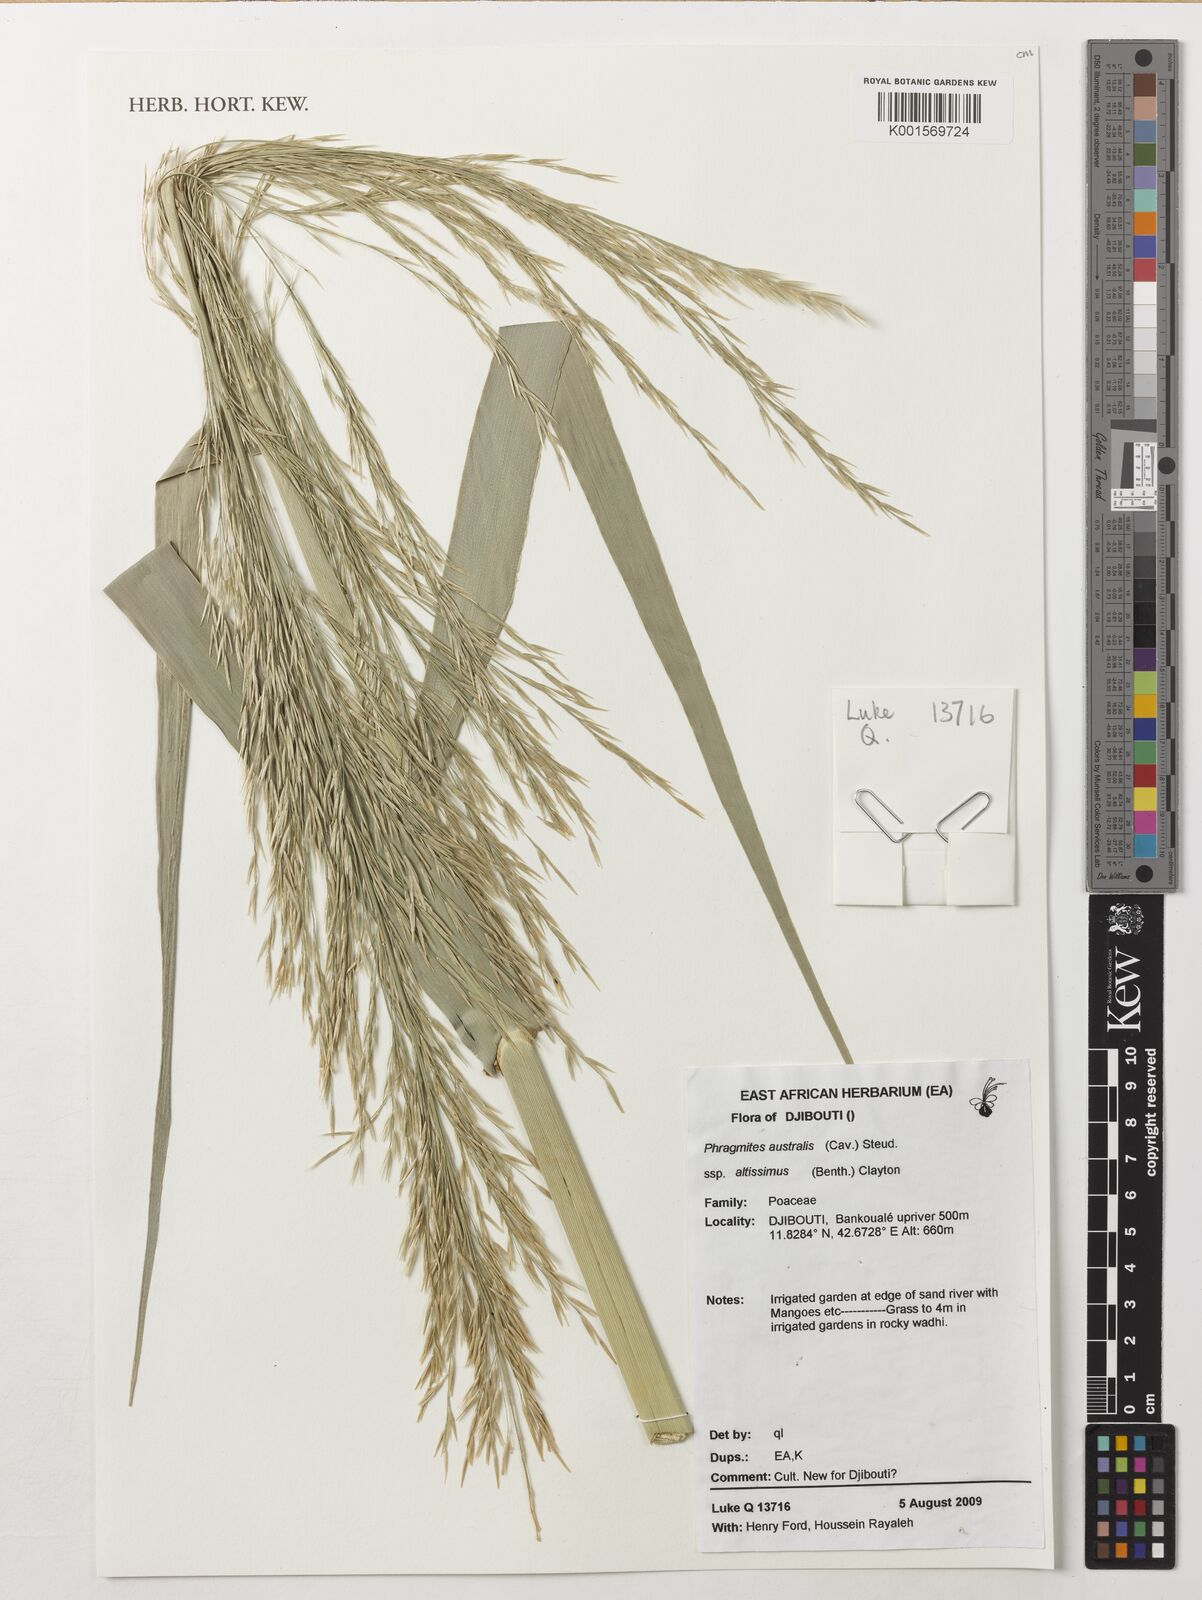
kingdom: Plantae
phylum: Tracheophyta
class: Liliopsida
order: Poales
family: Poaceae
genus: Phragmites
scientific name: Phragmites australis
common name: Common reed
